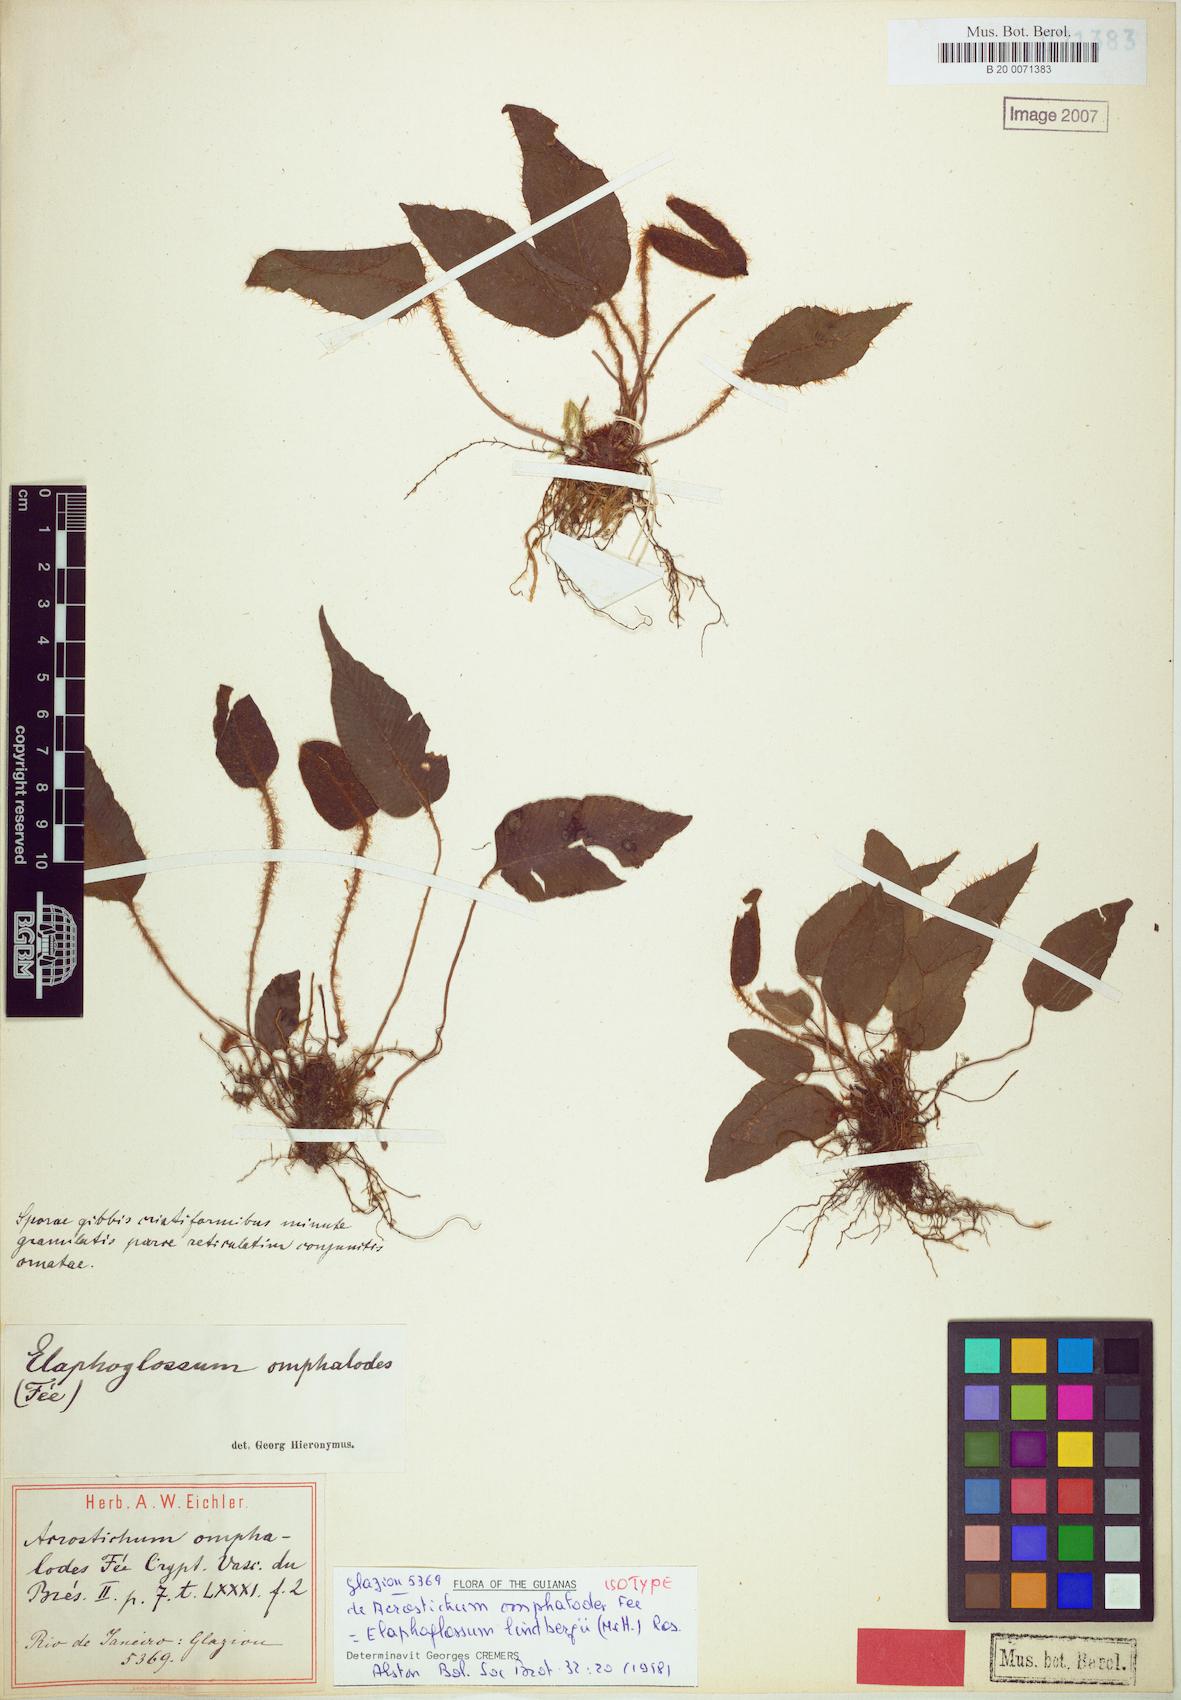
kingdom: Plantae
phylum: Tracheophyta
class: Polypodiopsida
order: Polypodiales
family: Dryopteridaceae
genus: Elaphoglossum
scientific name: Elaphoglossum hybridum
